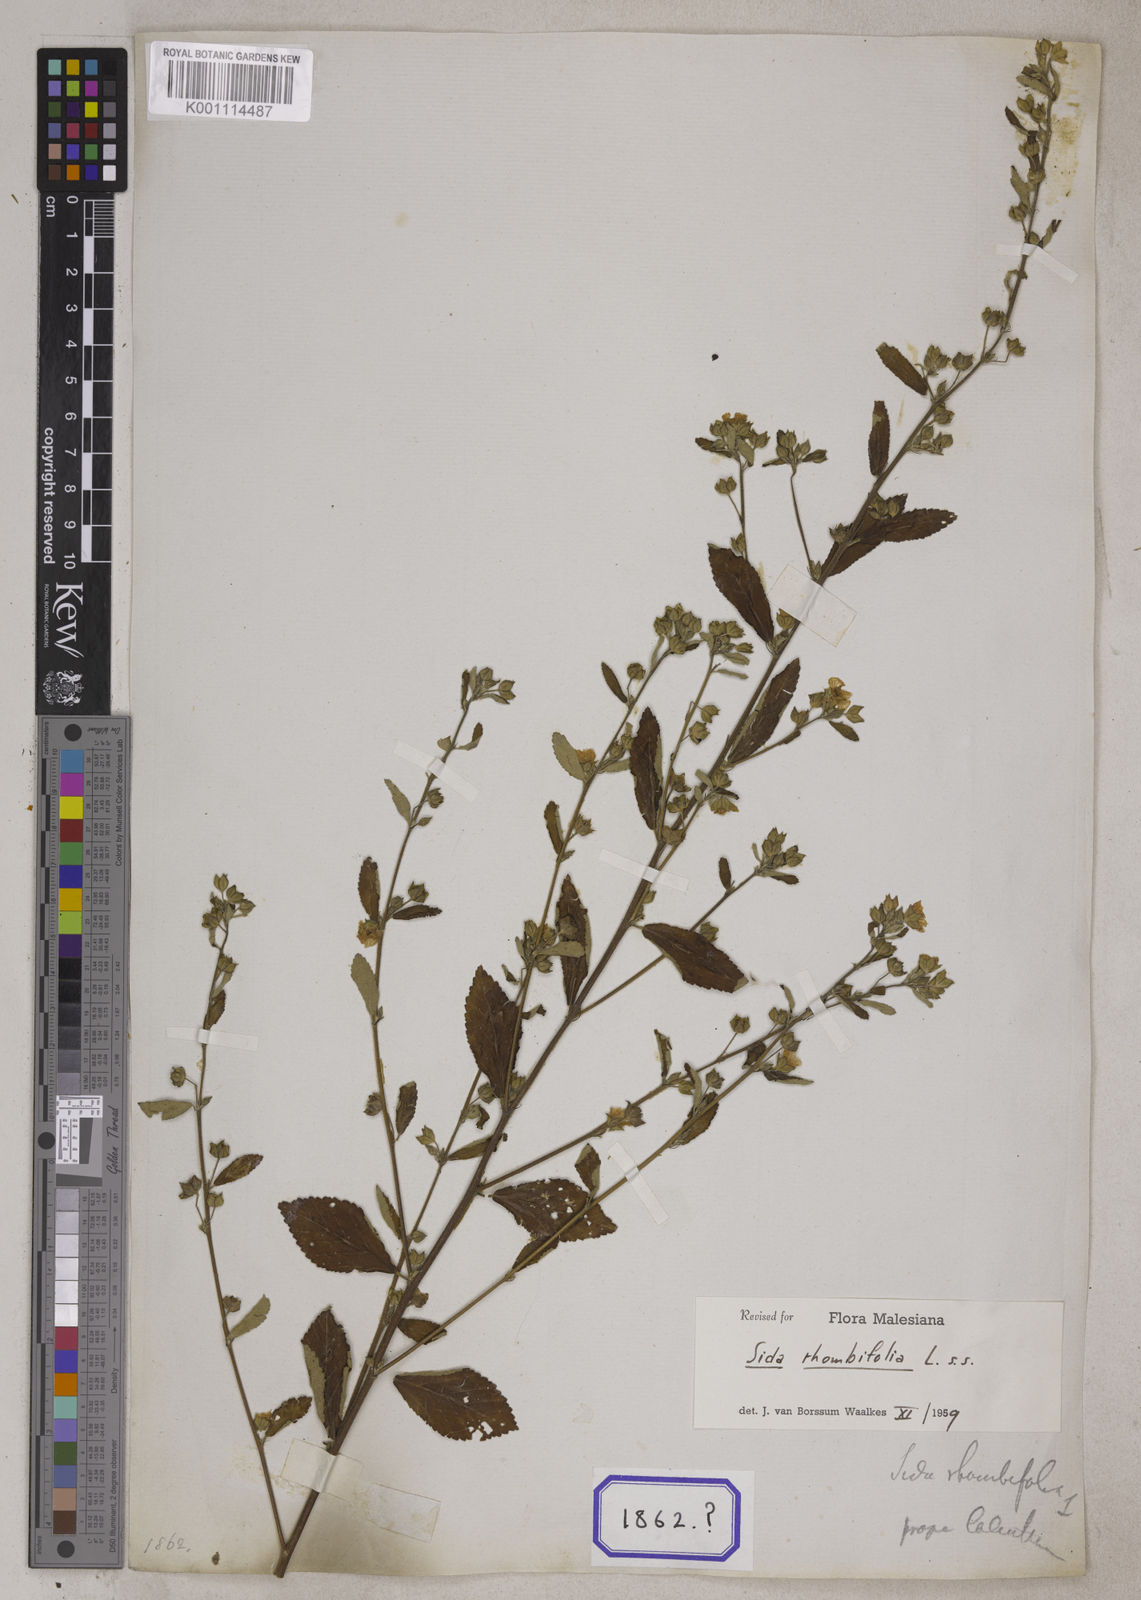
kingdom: Plantae
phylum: Tracheophyta
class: Magnoliopsida
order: Malvales
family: Malvaceae
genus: Sida
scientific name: Sida rhombifolia
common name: Queensland-hemp
